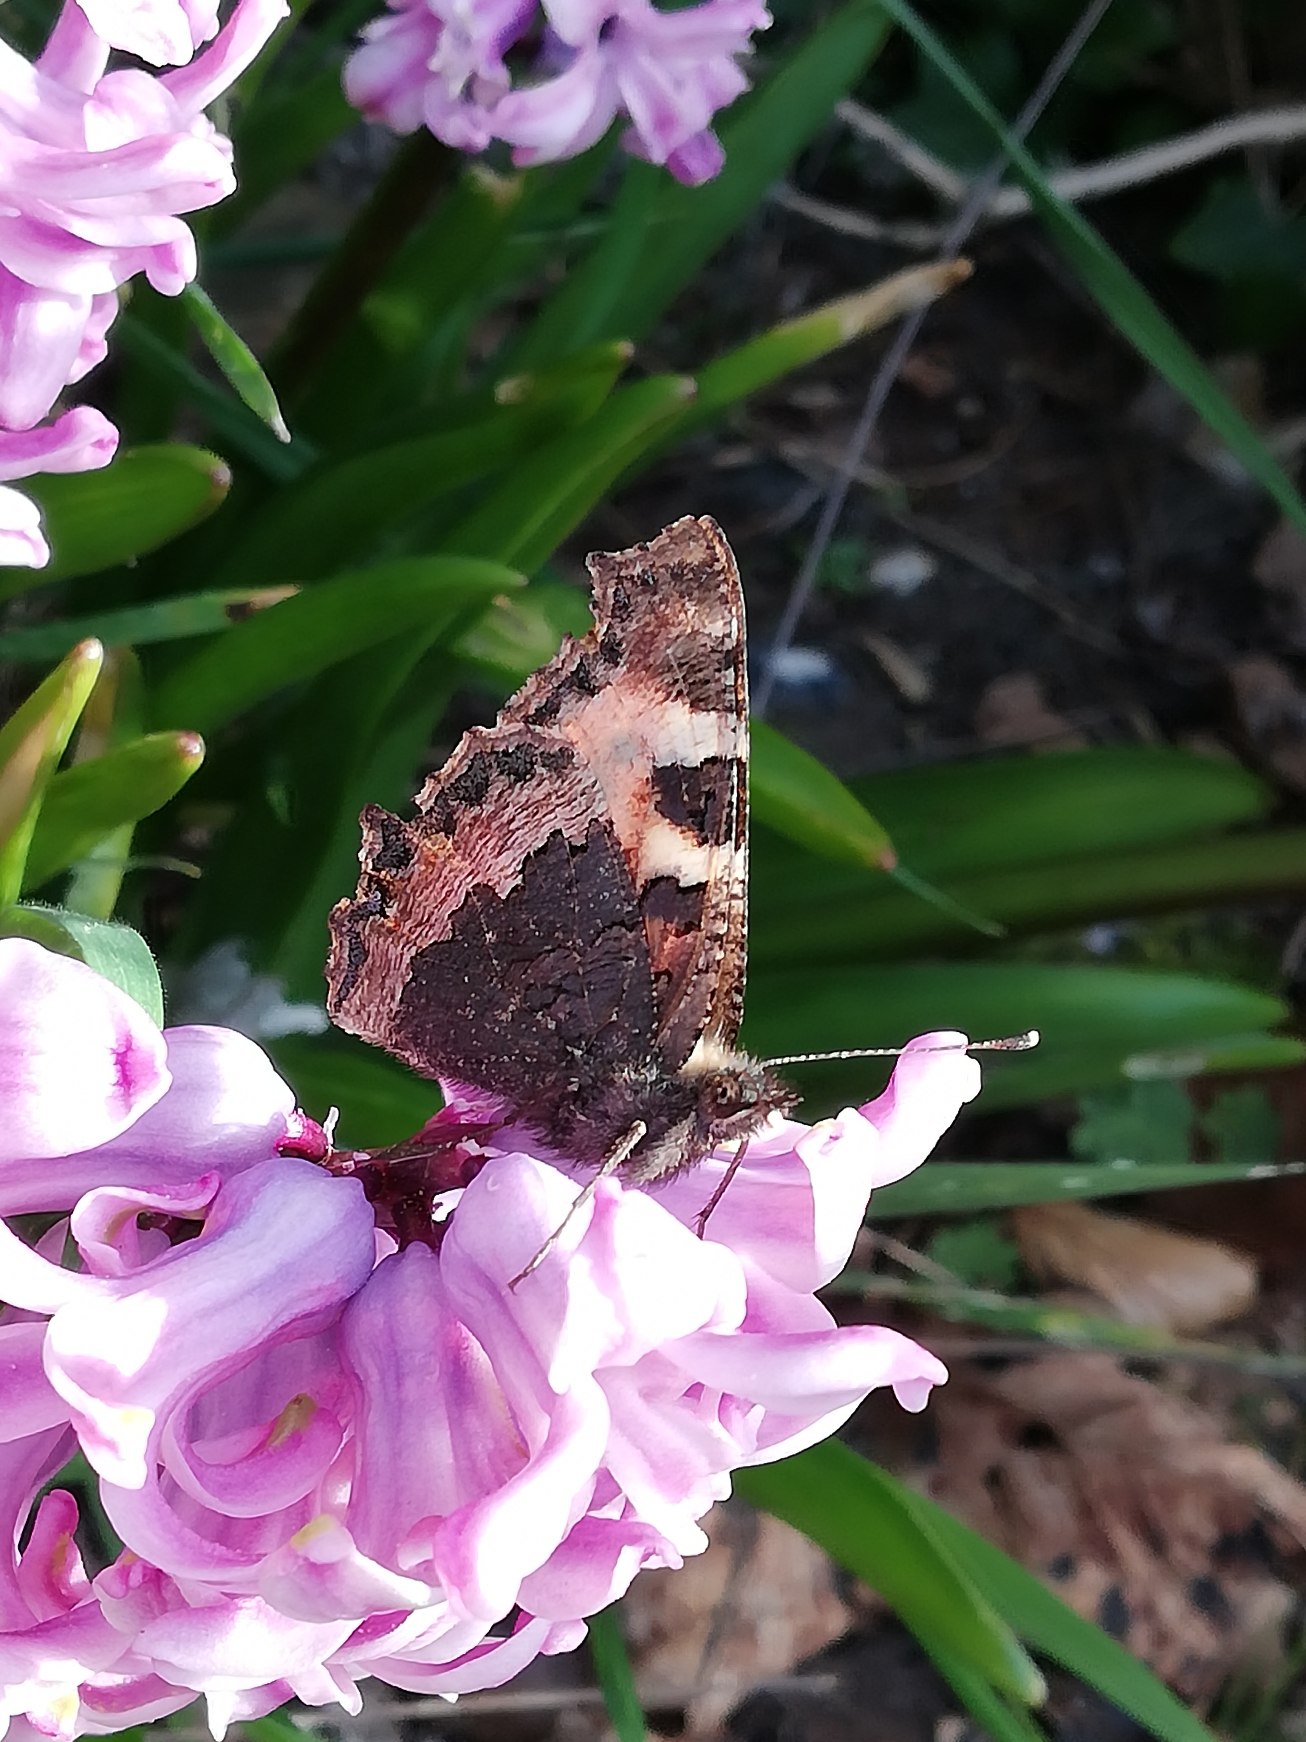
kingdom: Animalia
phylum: Arthropoda
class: Insecta
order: Lepidoptera
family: Nymphalidae
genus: Aglais
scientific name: Aglais urticae
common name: Nældens takvinge
